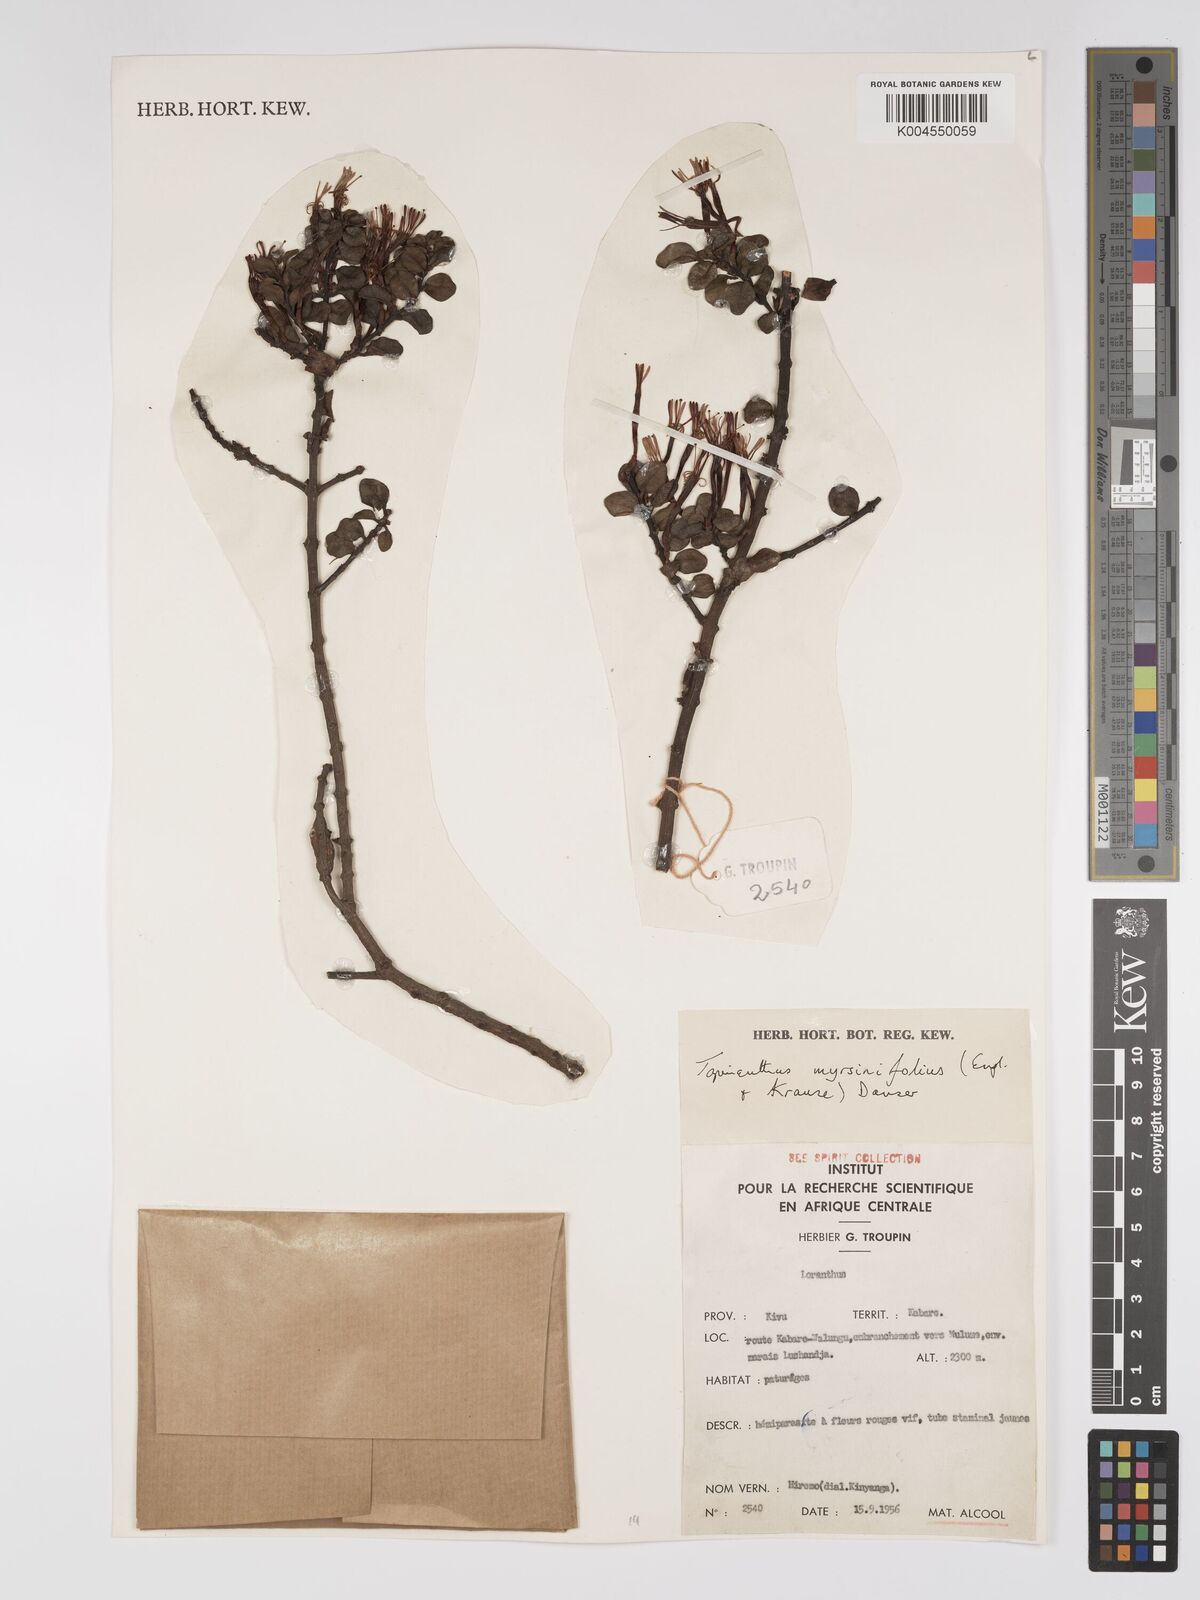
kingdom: Plantae
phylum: Tracheophyta
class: Magnoliopsida
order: Santalales
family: Loranthaceae
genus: Agelanthus
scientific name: Agelanthus myrsinifolius
